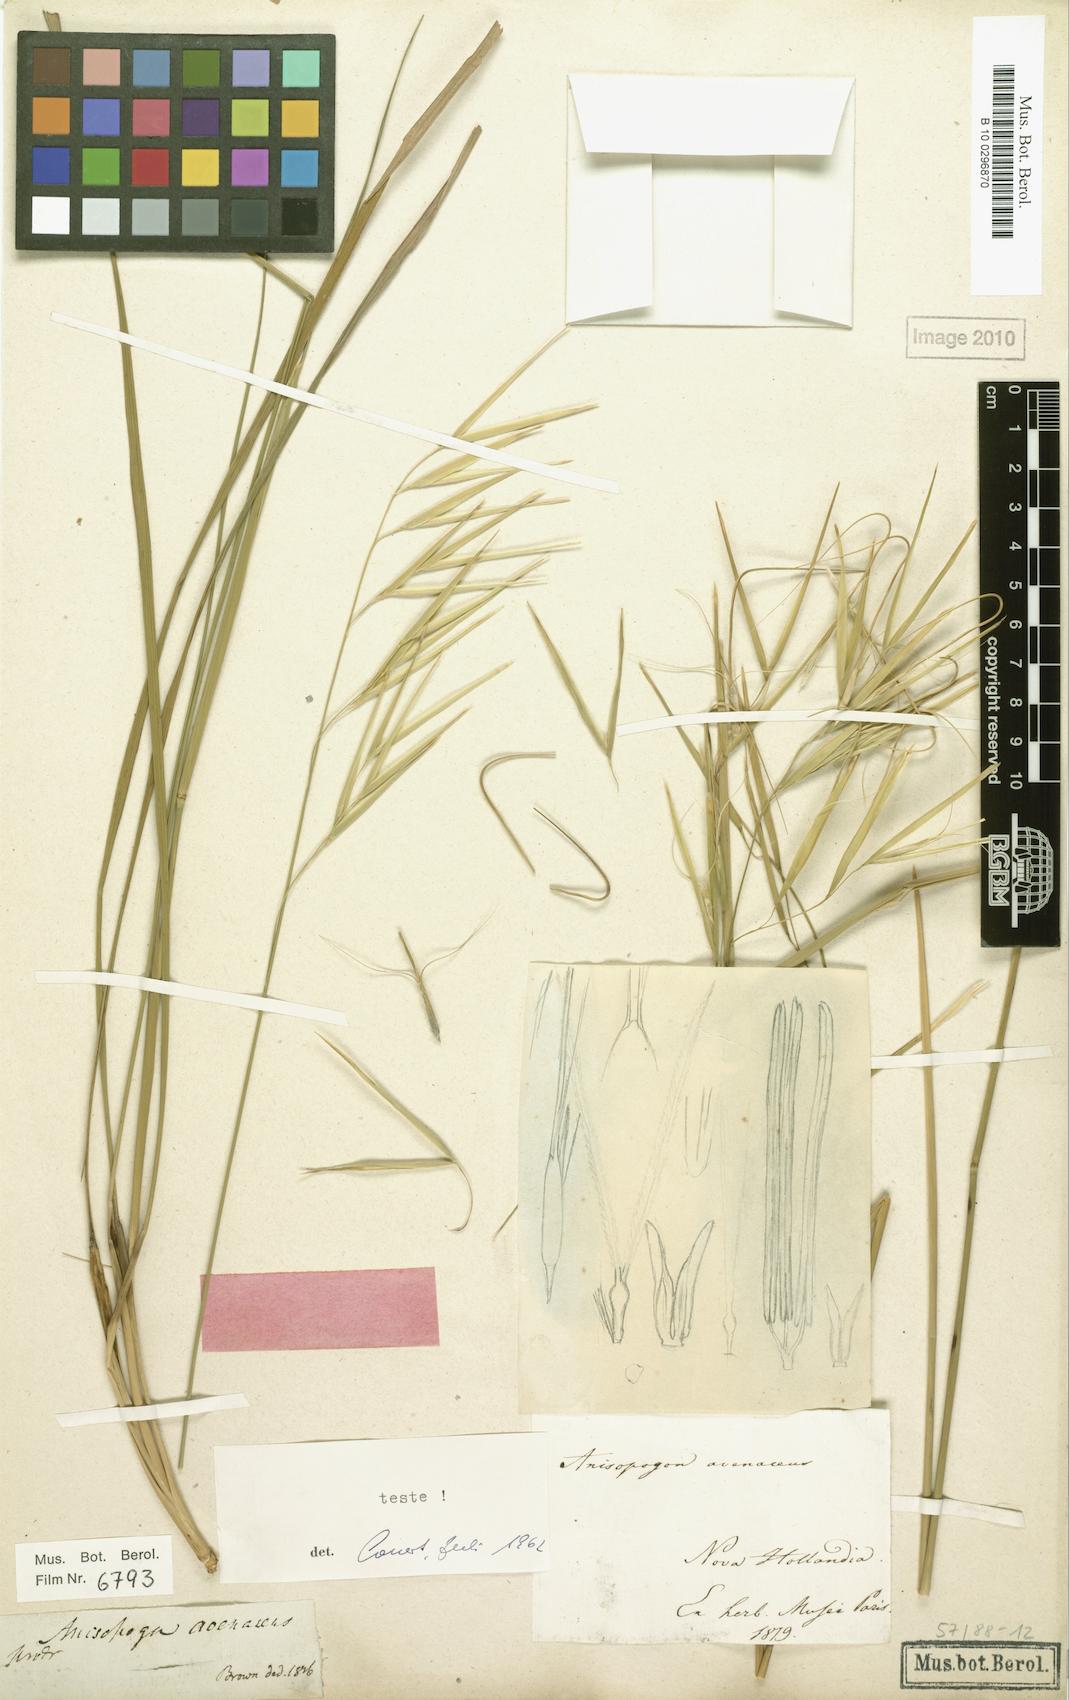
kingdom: Plantae
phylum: Tracheophyta
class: Liliopsida
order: Poales
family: Poaceae
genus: Anisopogon
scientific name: Anisopogon avenaceus
